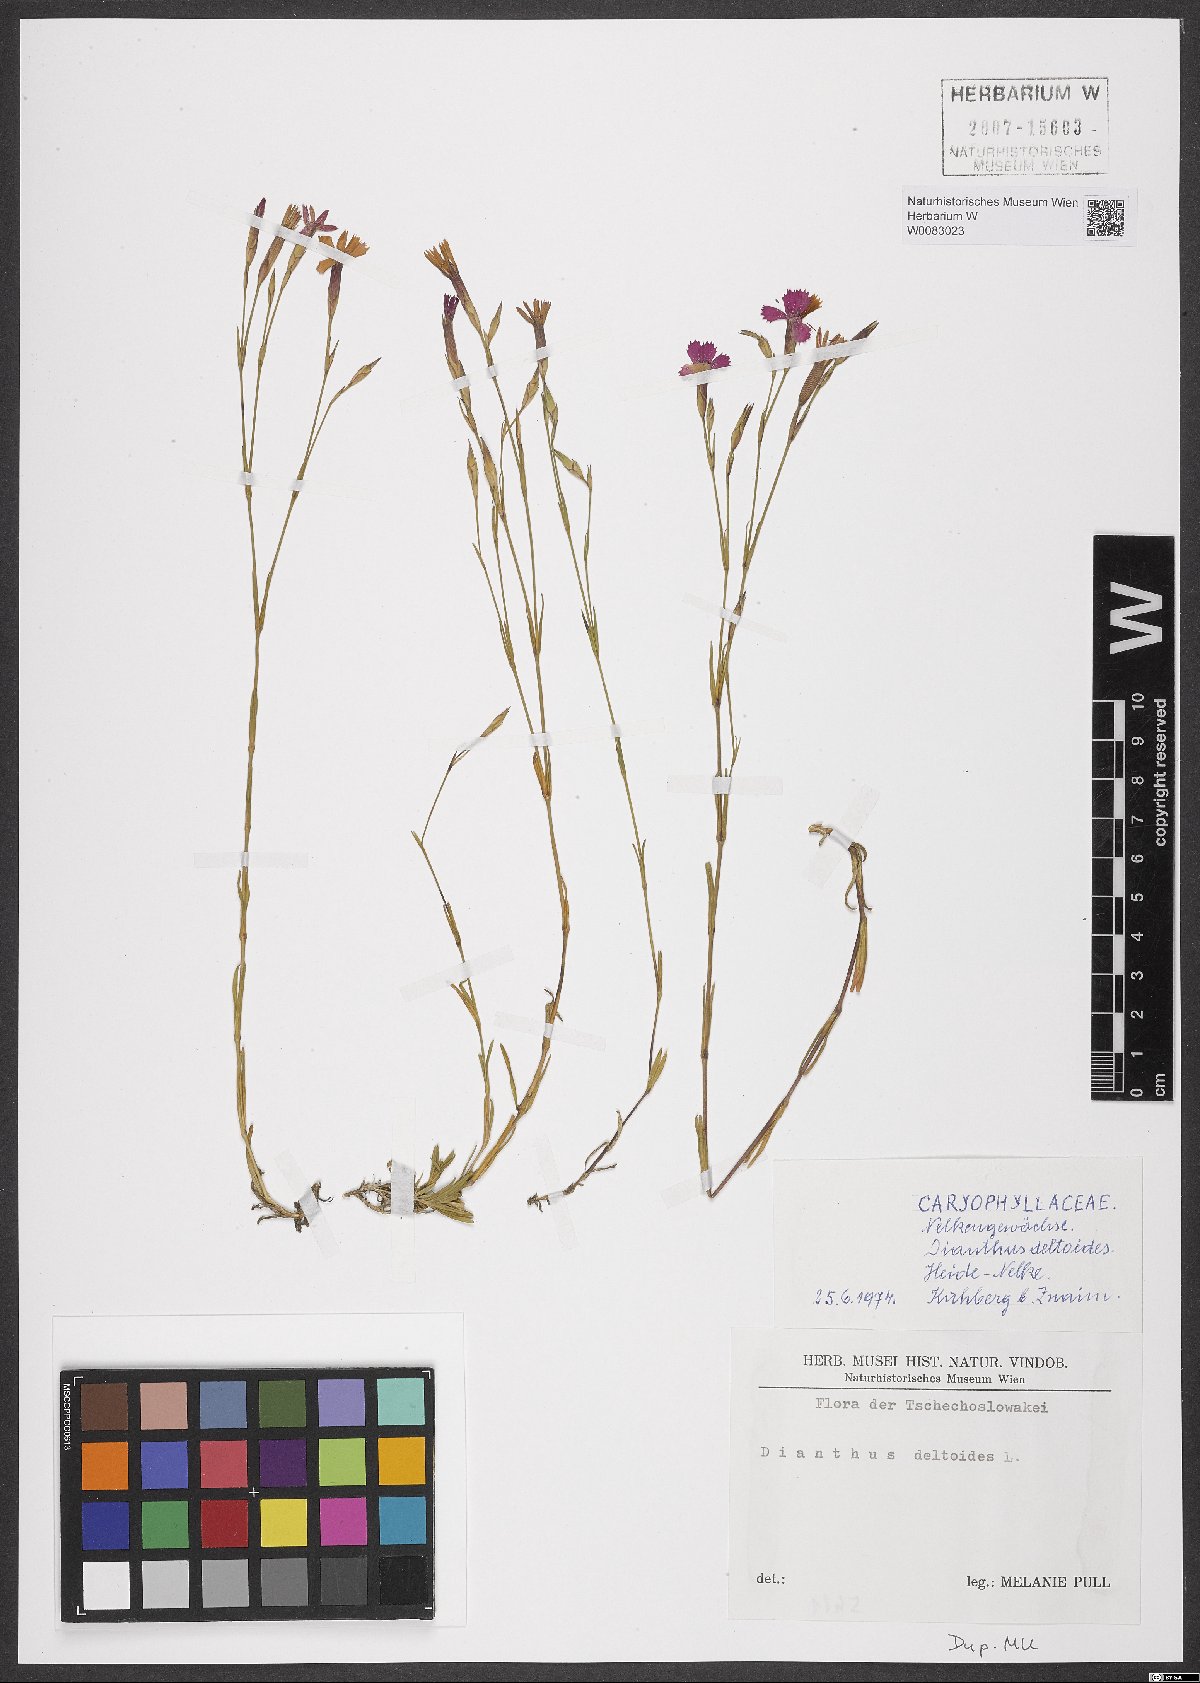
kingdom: Plantae
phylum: Tracheophyta
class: Magnoliopsida
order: Caryophyllales
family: Caryophyllaceae
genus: Dianthus
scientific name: Dianthus deltoides
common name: Maiden pink
